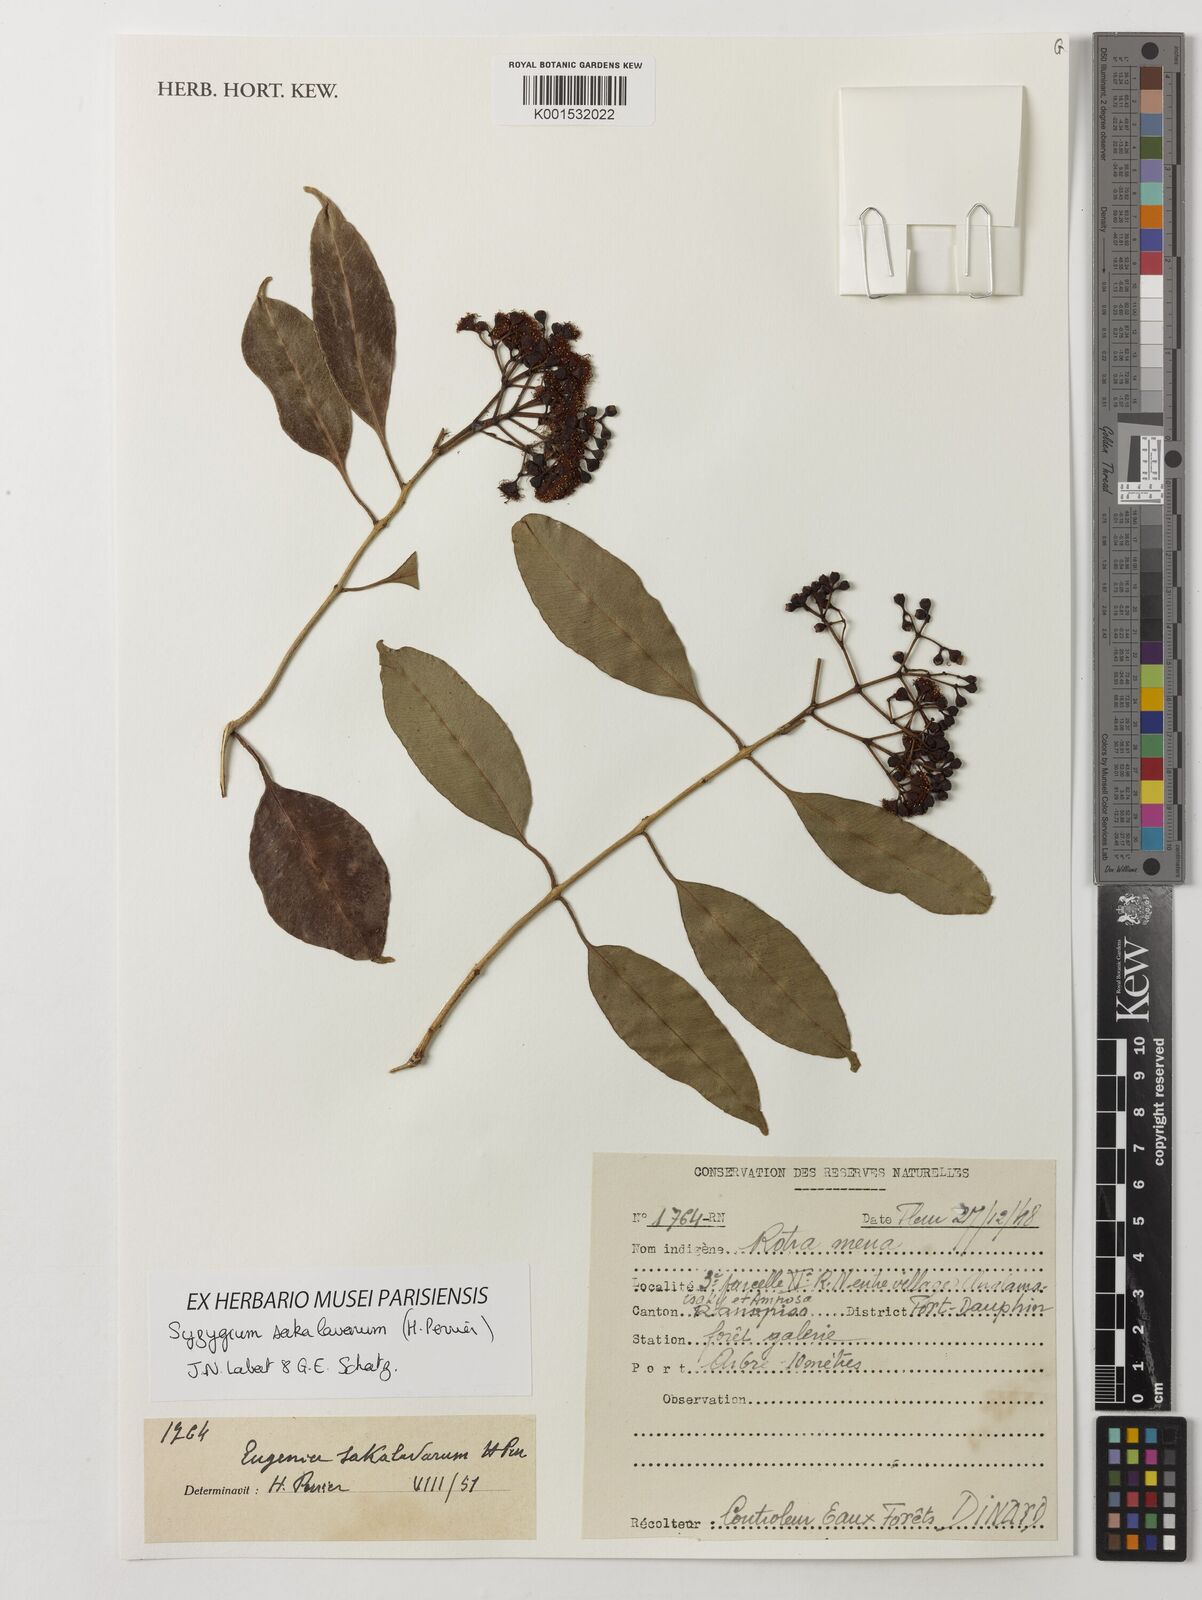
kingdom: Plantae
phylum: Tracheophyta
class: Magnoliopsida
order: Myrtales
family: Myrtaceae
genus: Syzygium
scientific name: Syzygium sakalavarum
